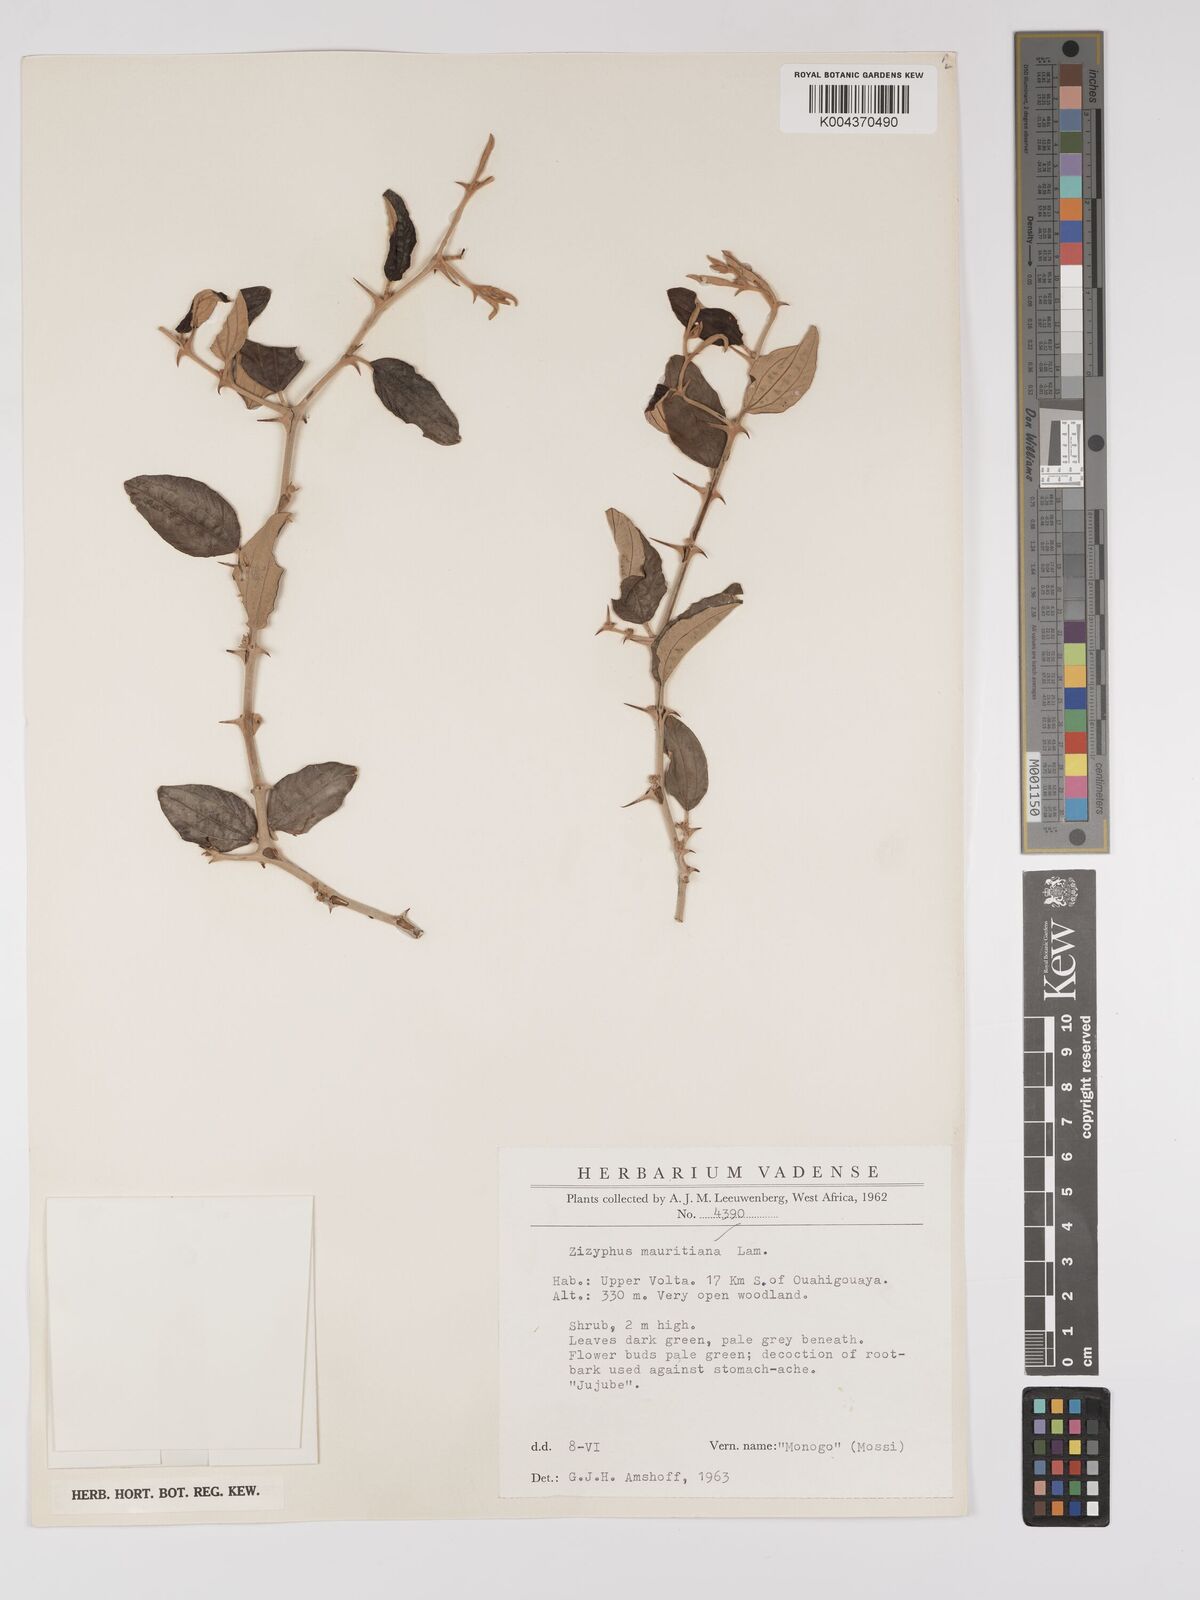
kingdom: Plantae
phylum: Tracheophyta
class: Magnoliopsida
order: Rosales
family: Rhamnaceae
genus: Ziziphus
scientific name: Ziziphus mauritiana
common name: Indian jujube
